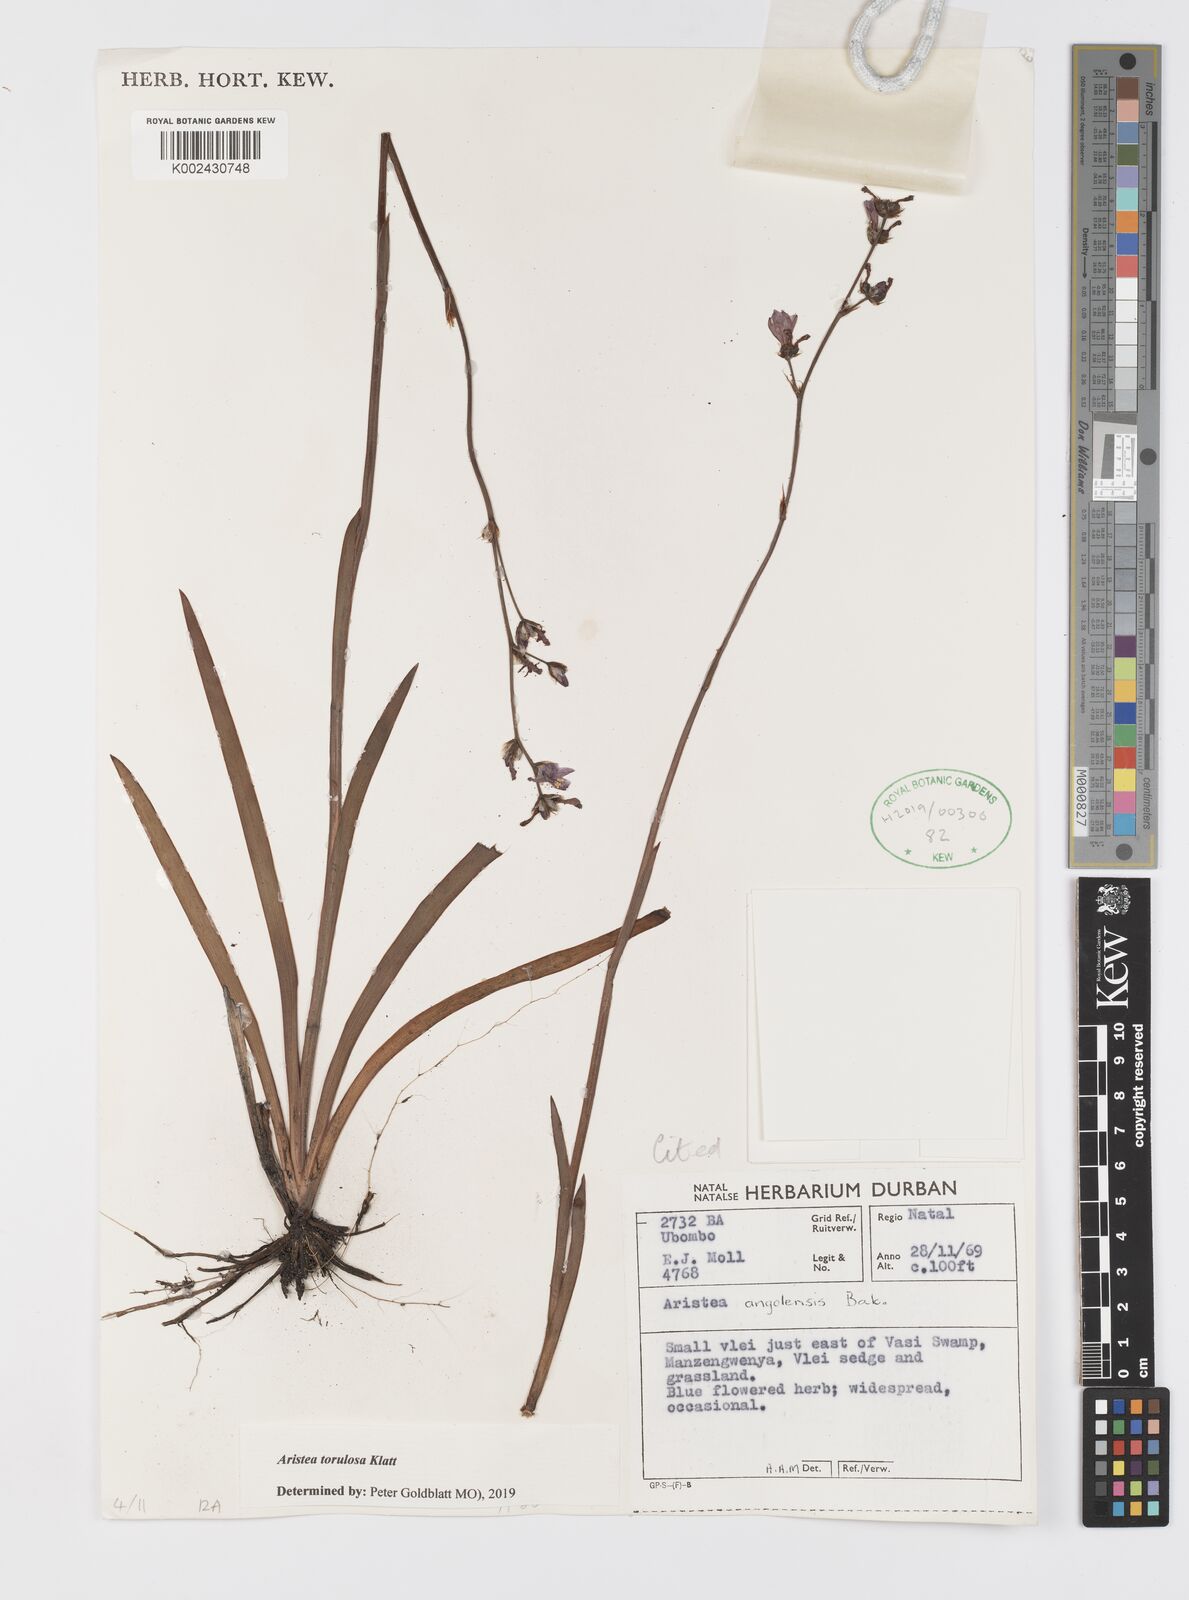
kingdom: Plantae
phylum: Tracheophyta
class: Liliopsida
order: Asparagales
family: Iridaceae
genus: Aristea
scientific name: Aristea torulosa
